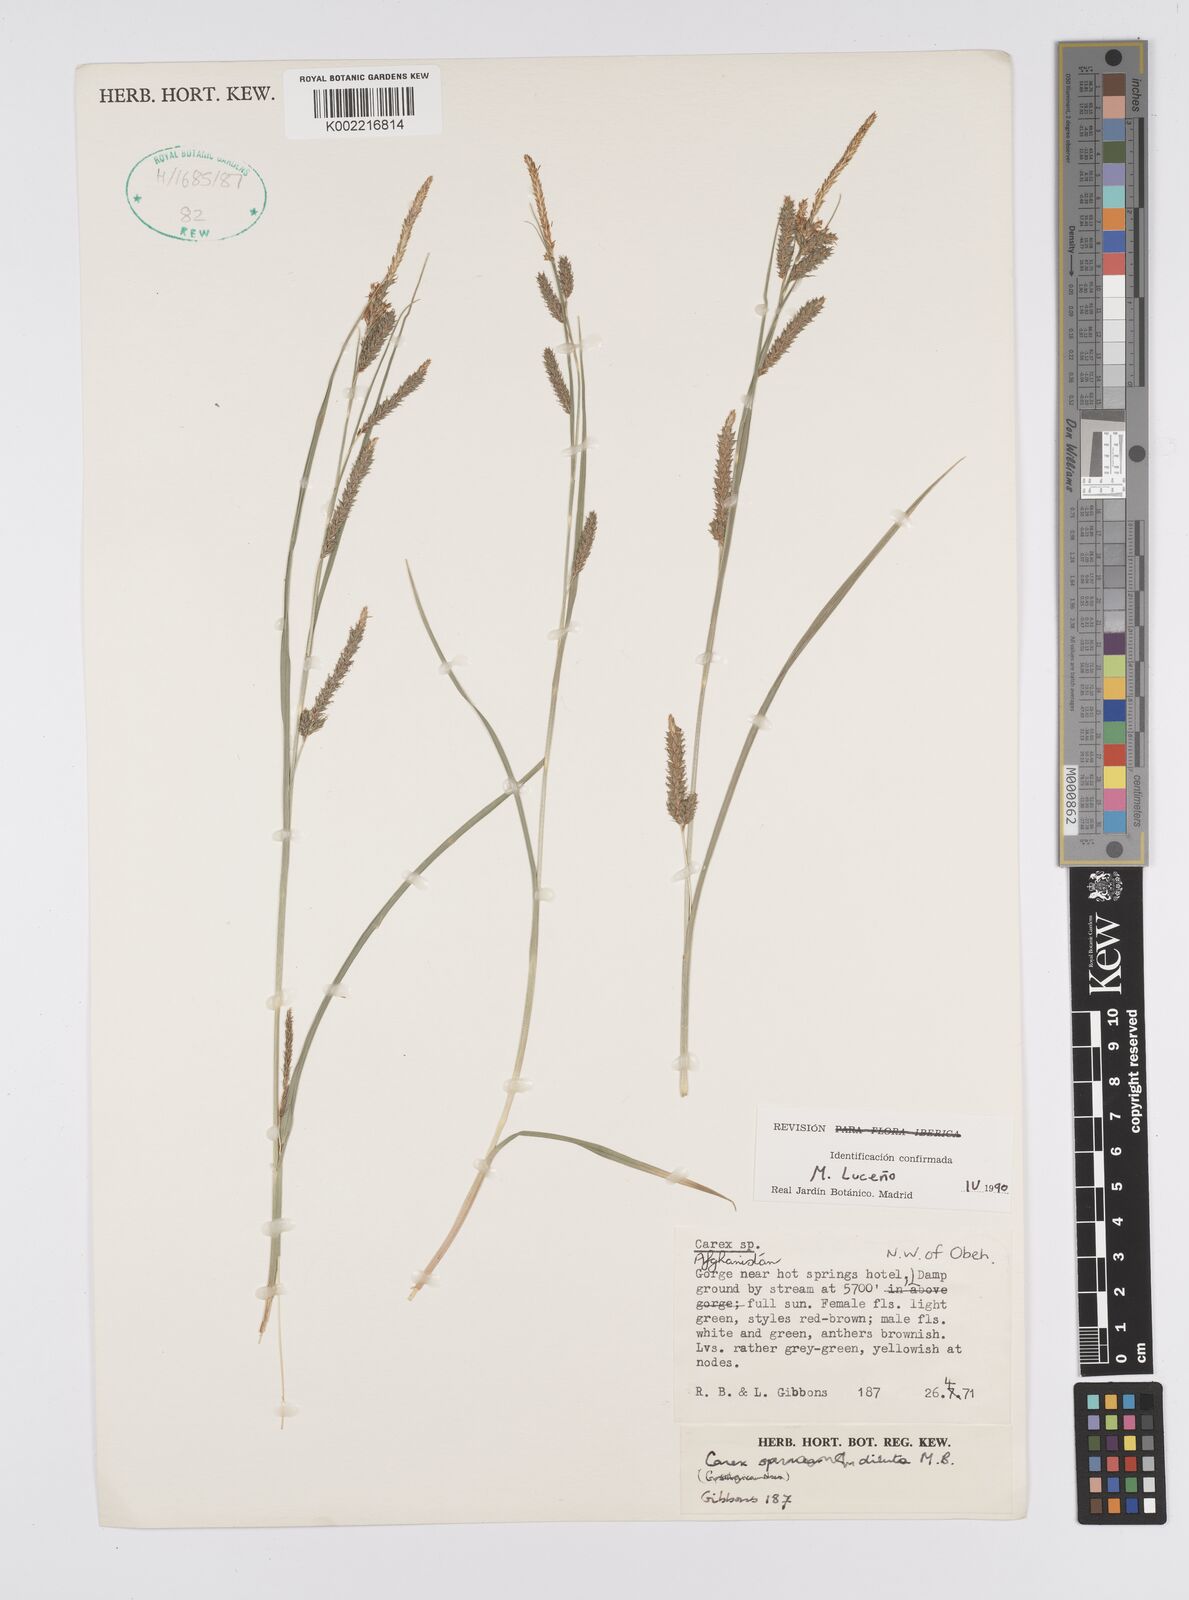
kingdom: Plantae
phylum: Tracheophyta
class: Liliopsida
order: Poales
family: Cyperaceae
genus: Carex
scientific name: Carex diluta
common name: Sedge
